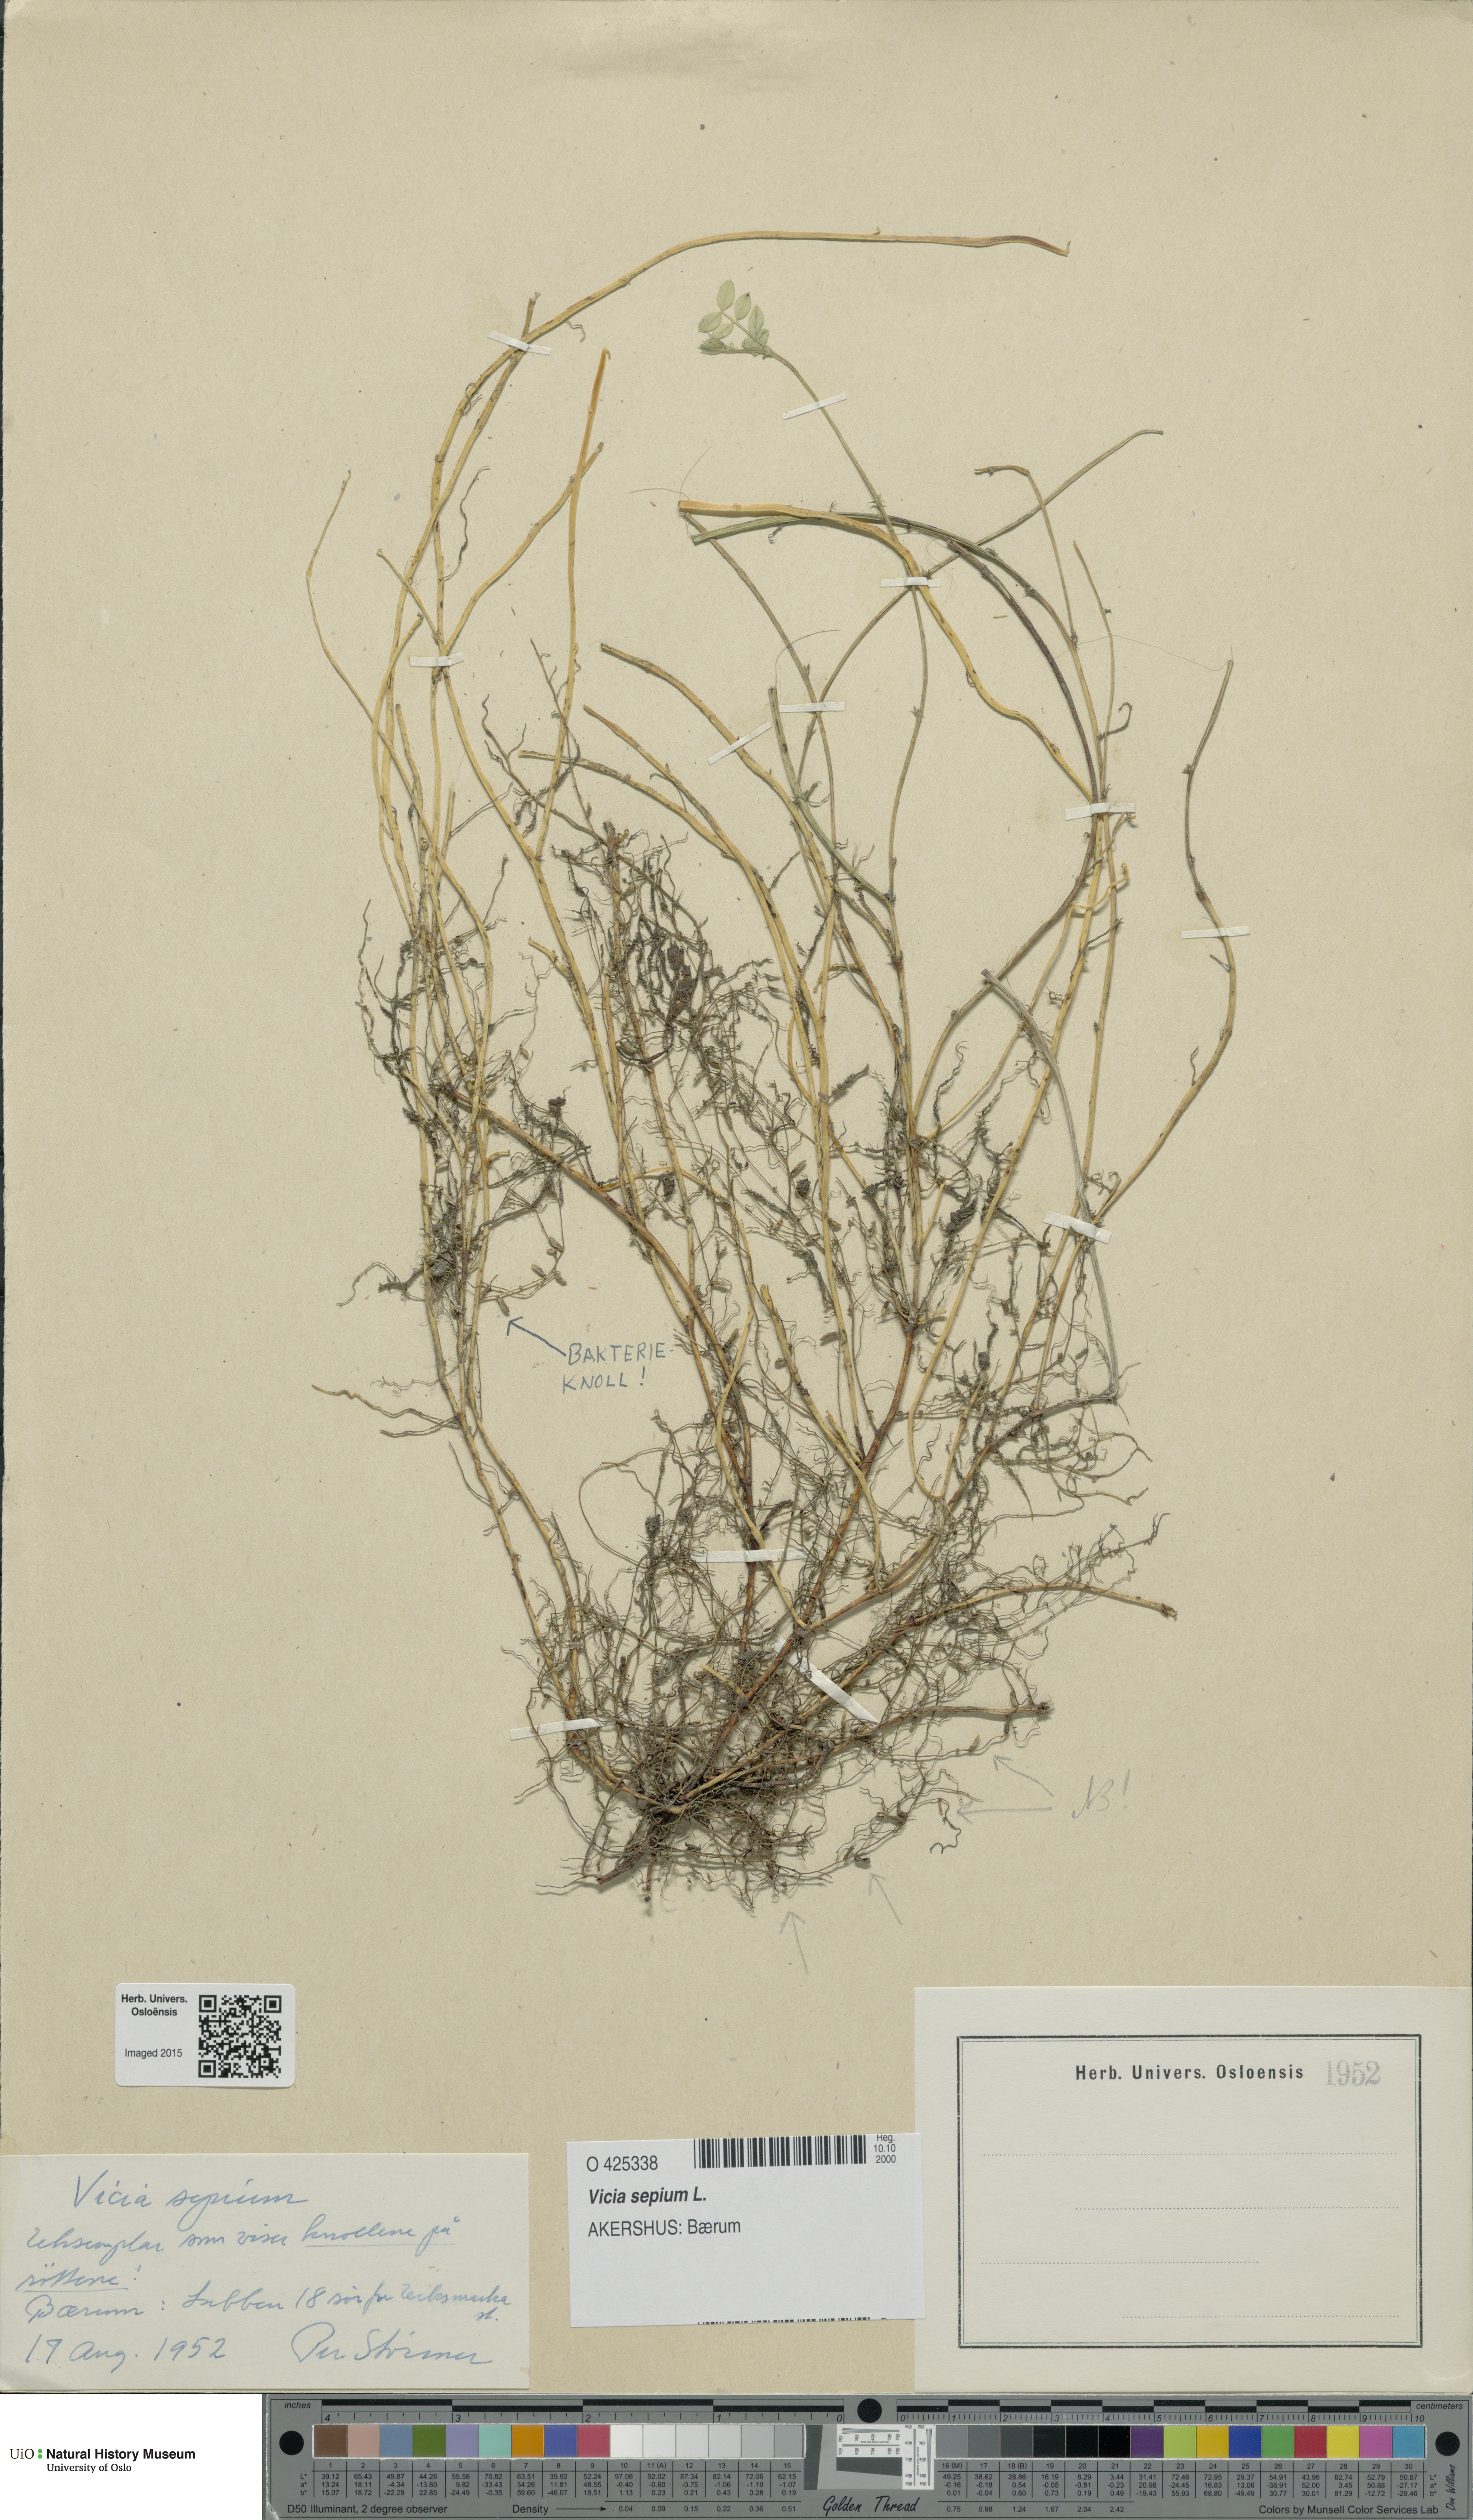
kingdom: Plantae
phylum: Tracheophyta
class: Magnoliopsida
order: Fabales
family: Fabaceae
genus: Vicia
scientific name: Vicia sepium
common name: Bush vetch
